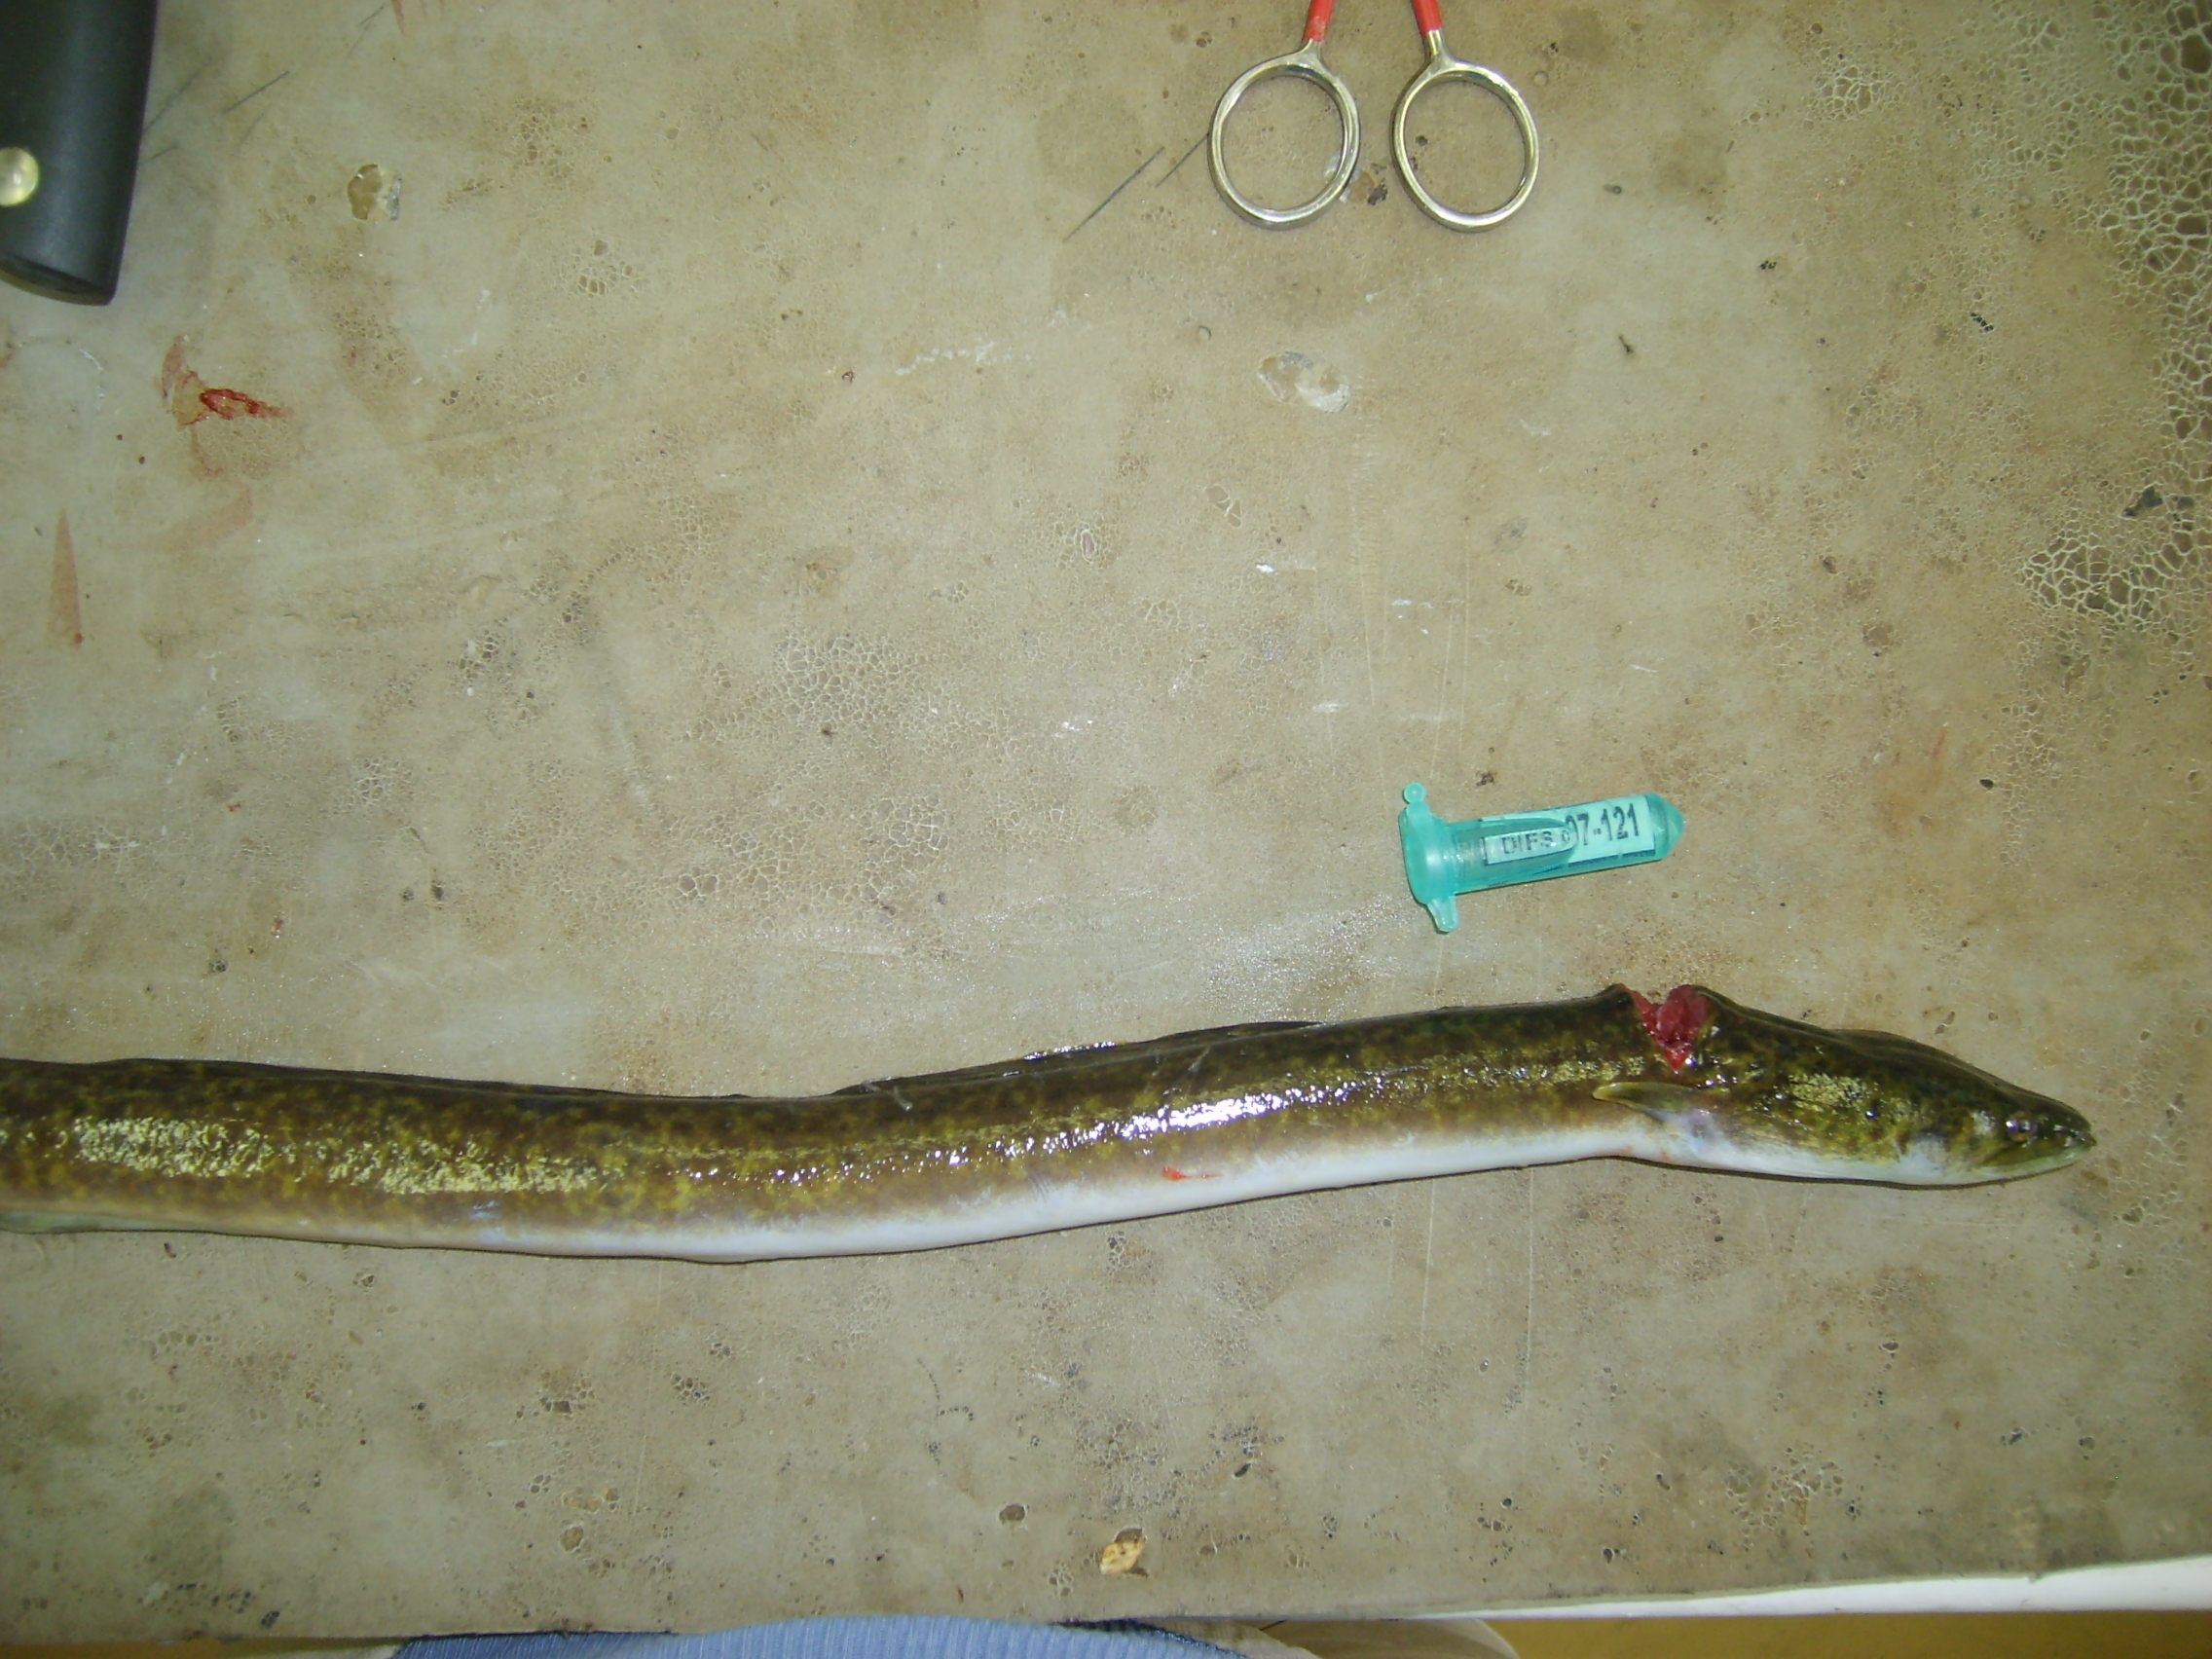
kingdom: Animalia
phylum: Chordata
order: Anguilliformes
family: Anguillidae
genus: Anguilla
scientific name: Anguilla mossambica
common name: African longfin eel
